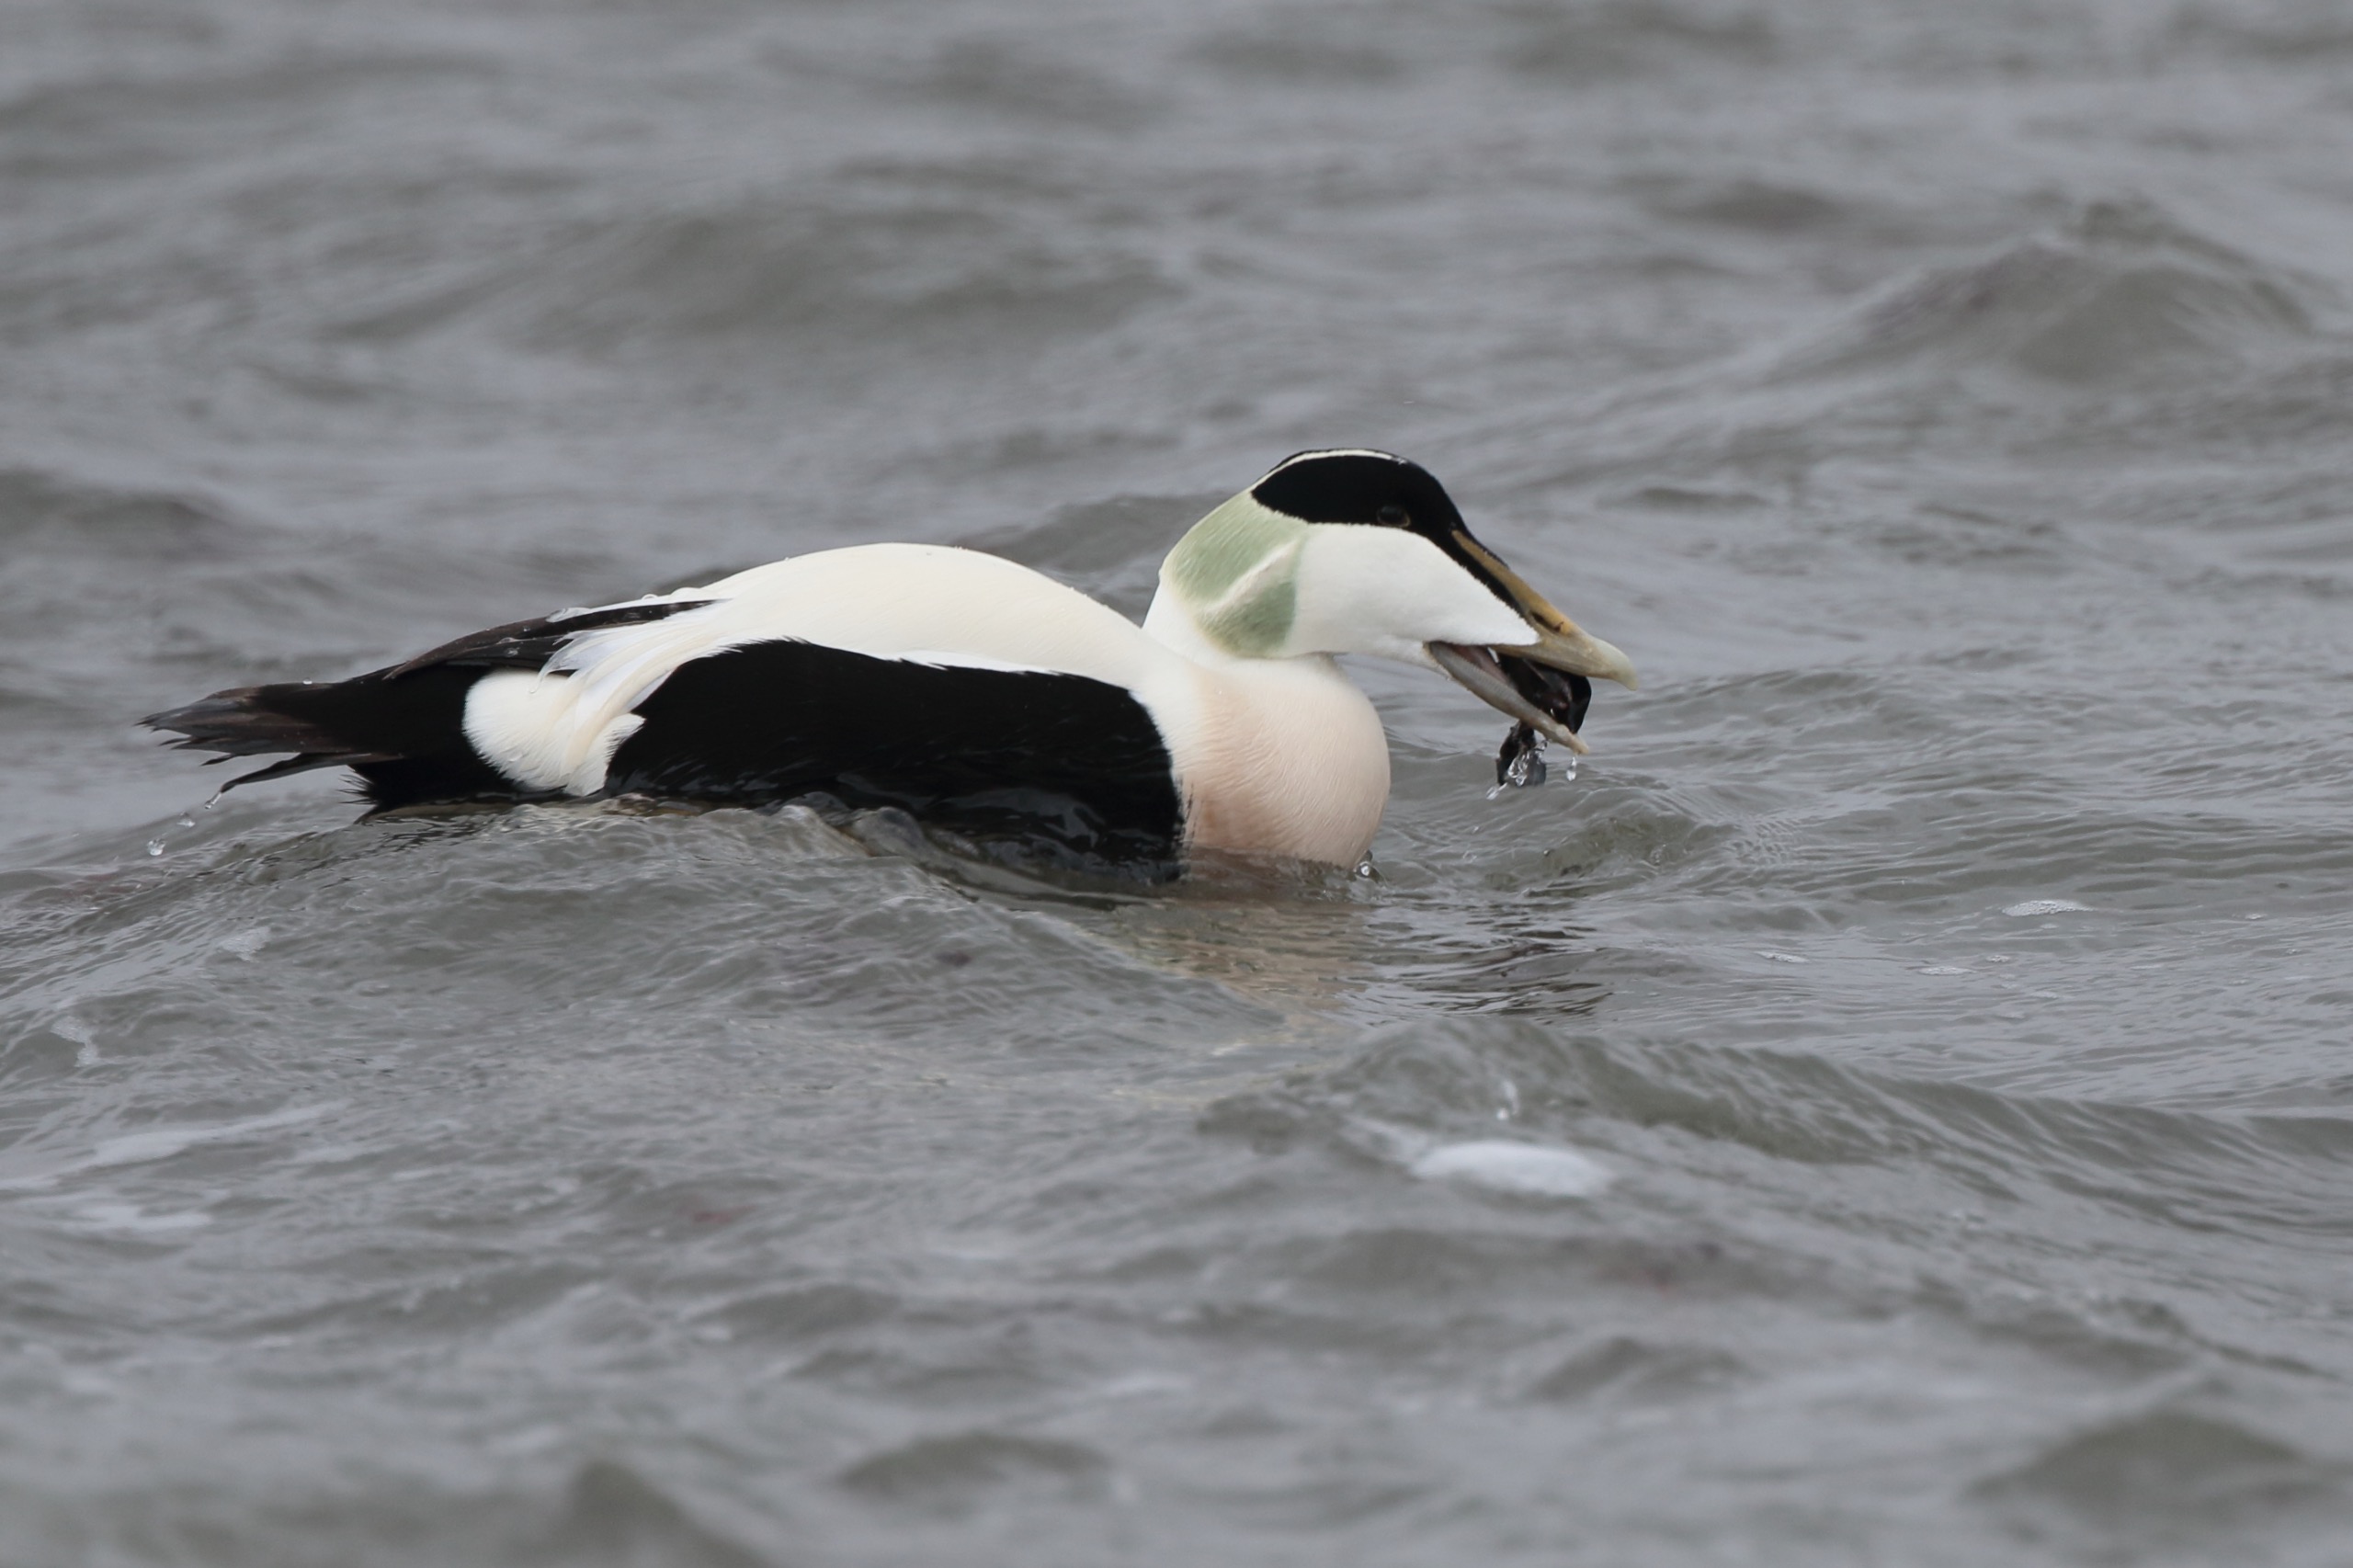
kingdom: Animalia
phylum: Chordata
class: Aves
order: Anseriformes
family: Anatidae
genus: Somateria
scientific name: Somateria mollissima
